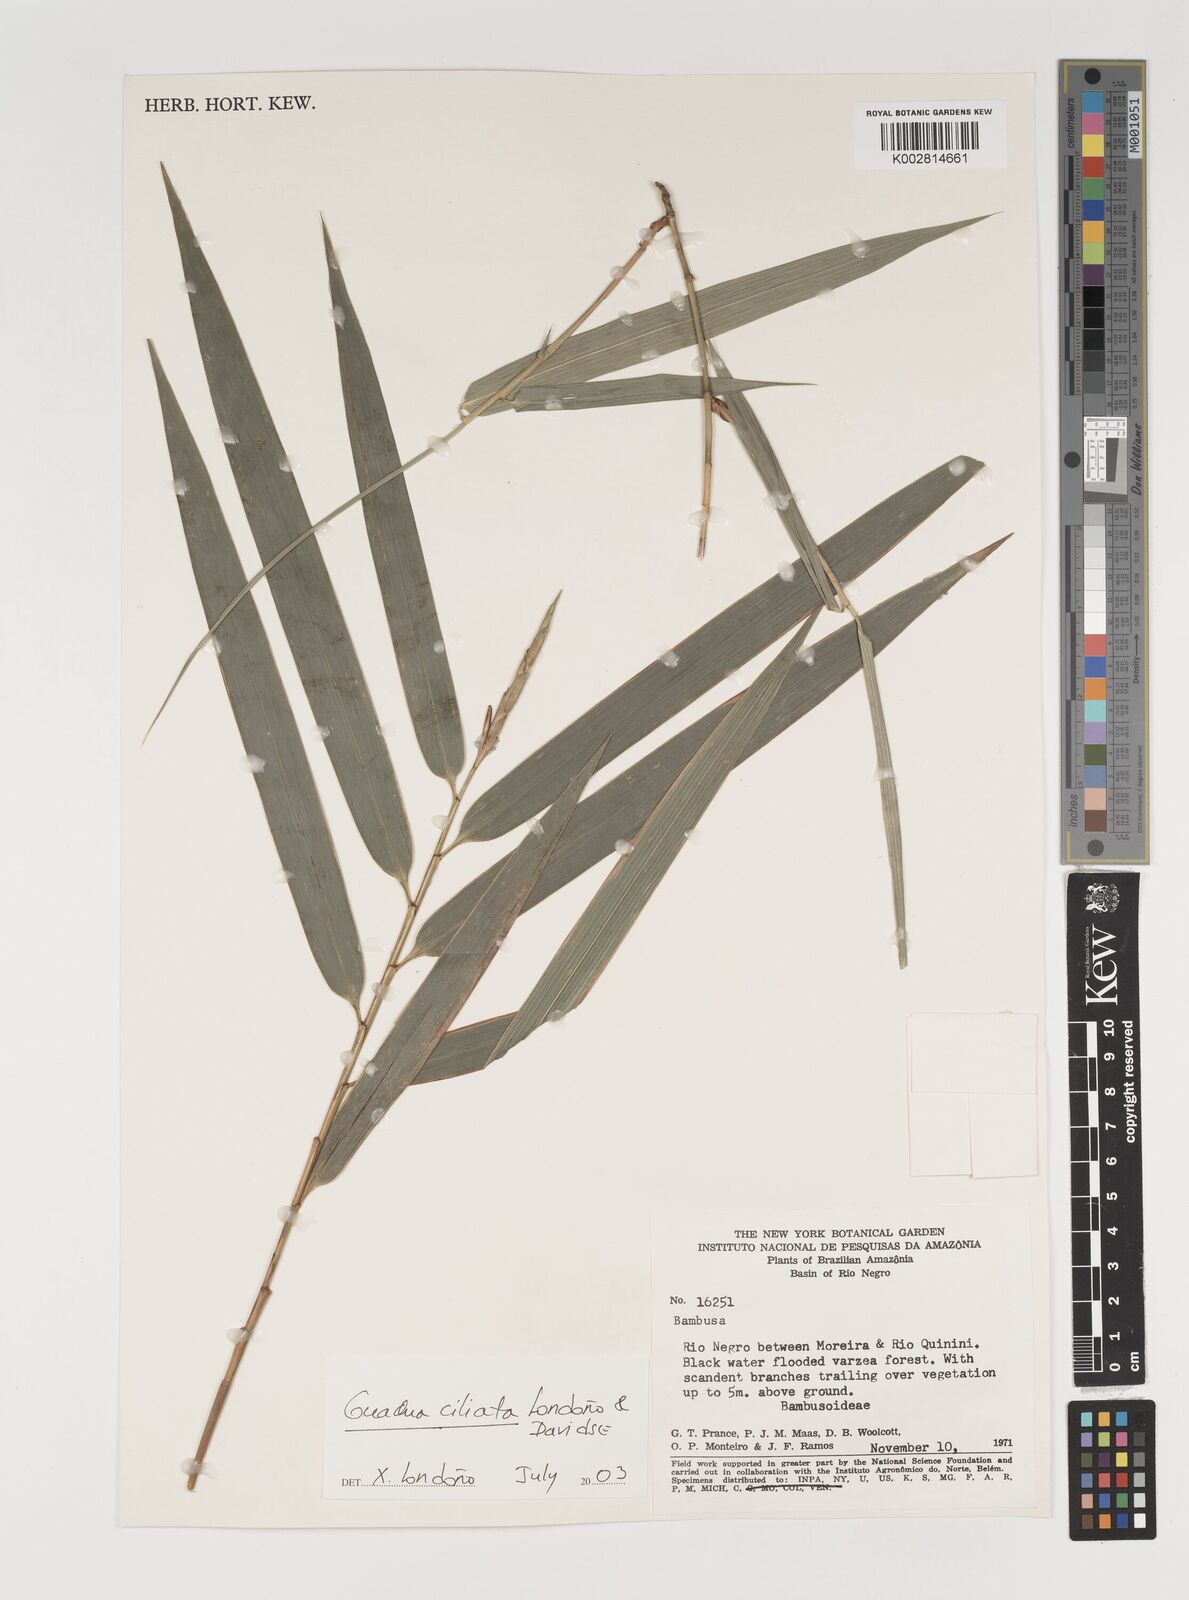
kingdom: Plantae
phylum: Tracheophyta
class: Liliopsida
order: Poales
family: Poaceae
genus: Guadua
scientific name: Guadua ciliata
